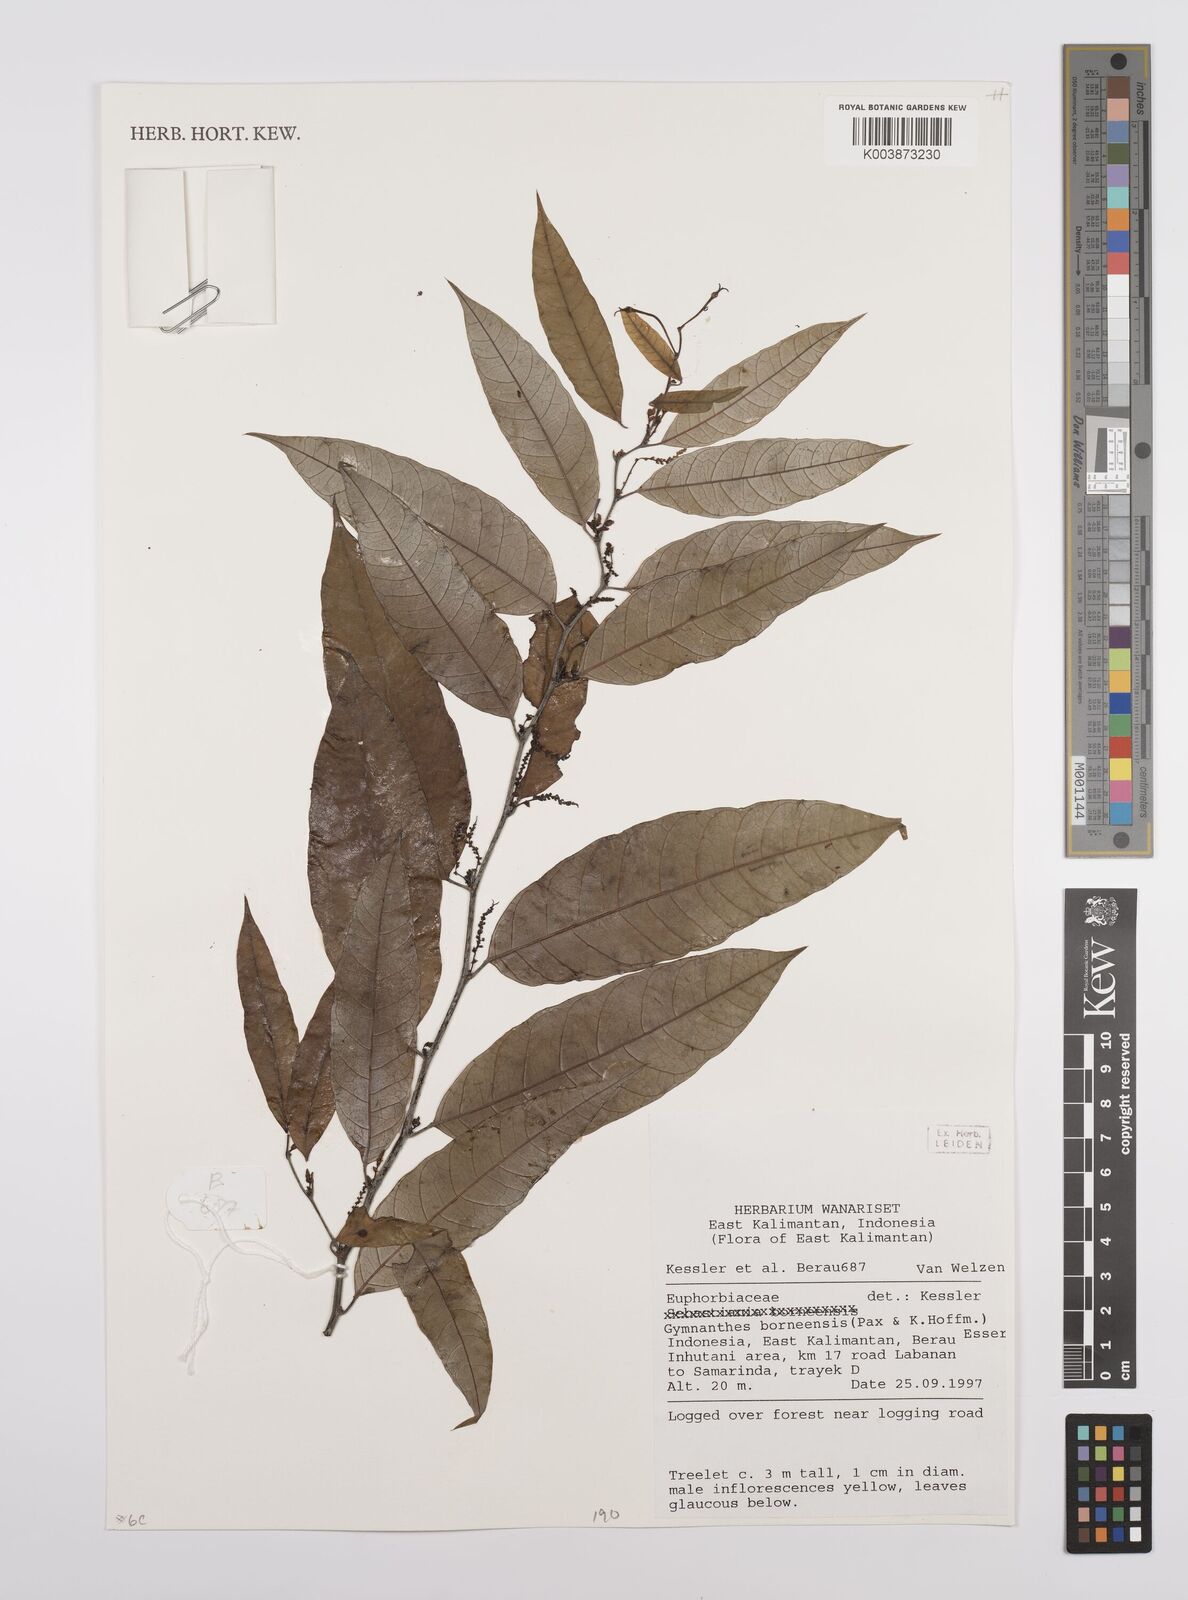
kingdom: Plantae
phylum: Tracheophyta
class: Magnoliopsida
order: Malpighiales
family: Euphorbiaceae
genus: Gymnanthes
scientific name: Gymnanthes borneensis
